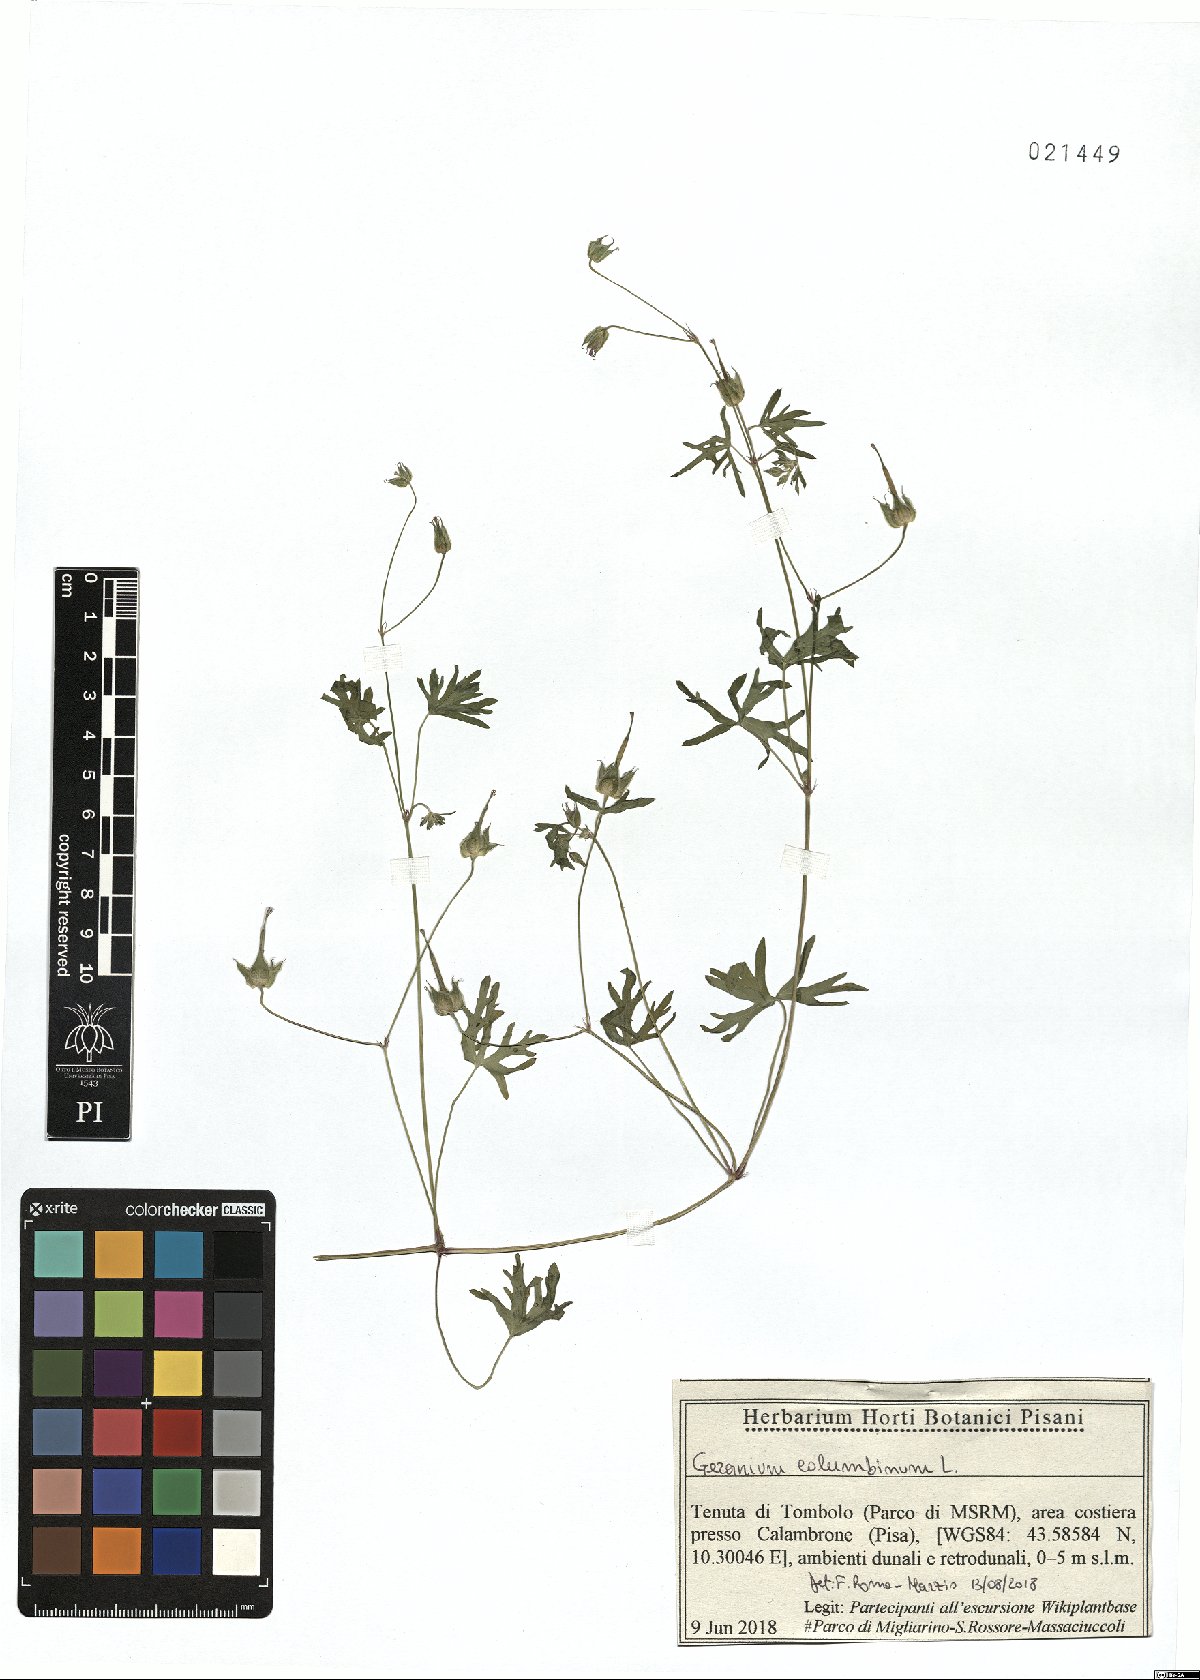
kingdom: Plantae
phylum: Tracheophyta
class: Magnoliopsida
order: Geraniales
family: Geraniaceae
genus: Geranium
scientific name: Geranium columbinum
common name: Long-stalked crane's-bill
